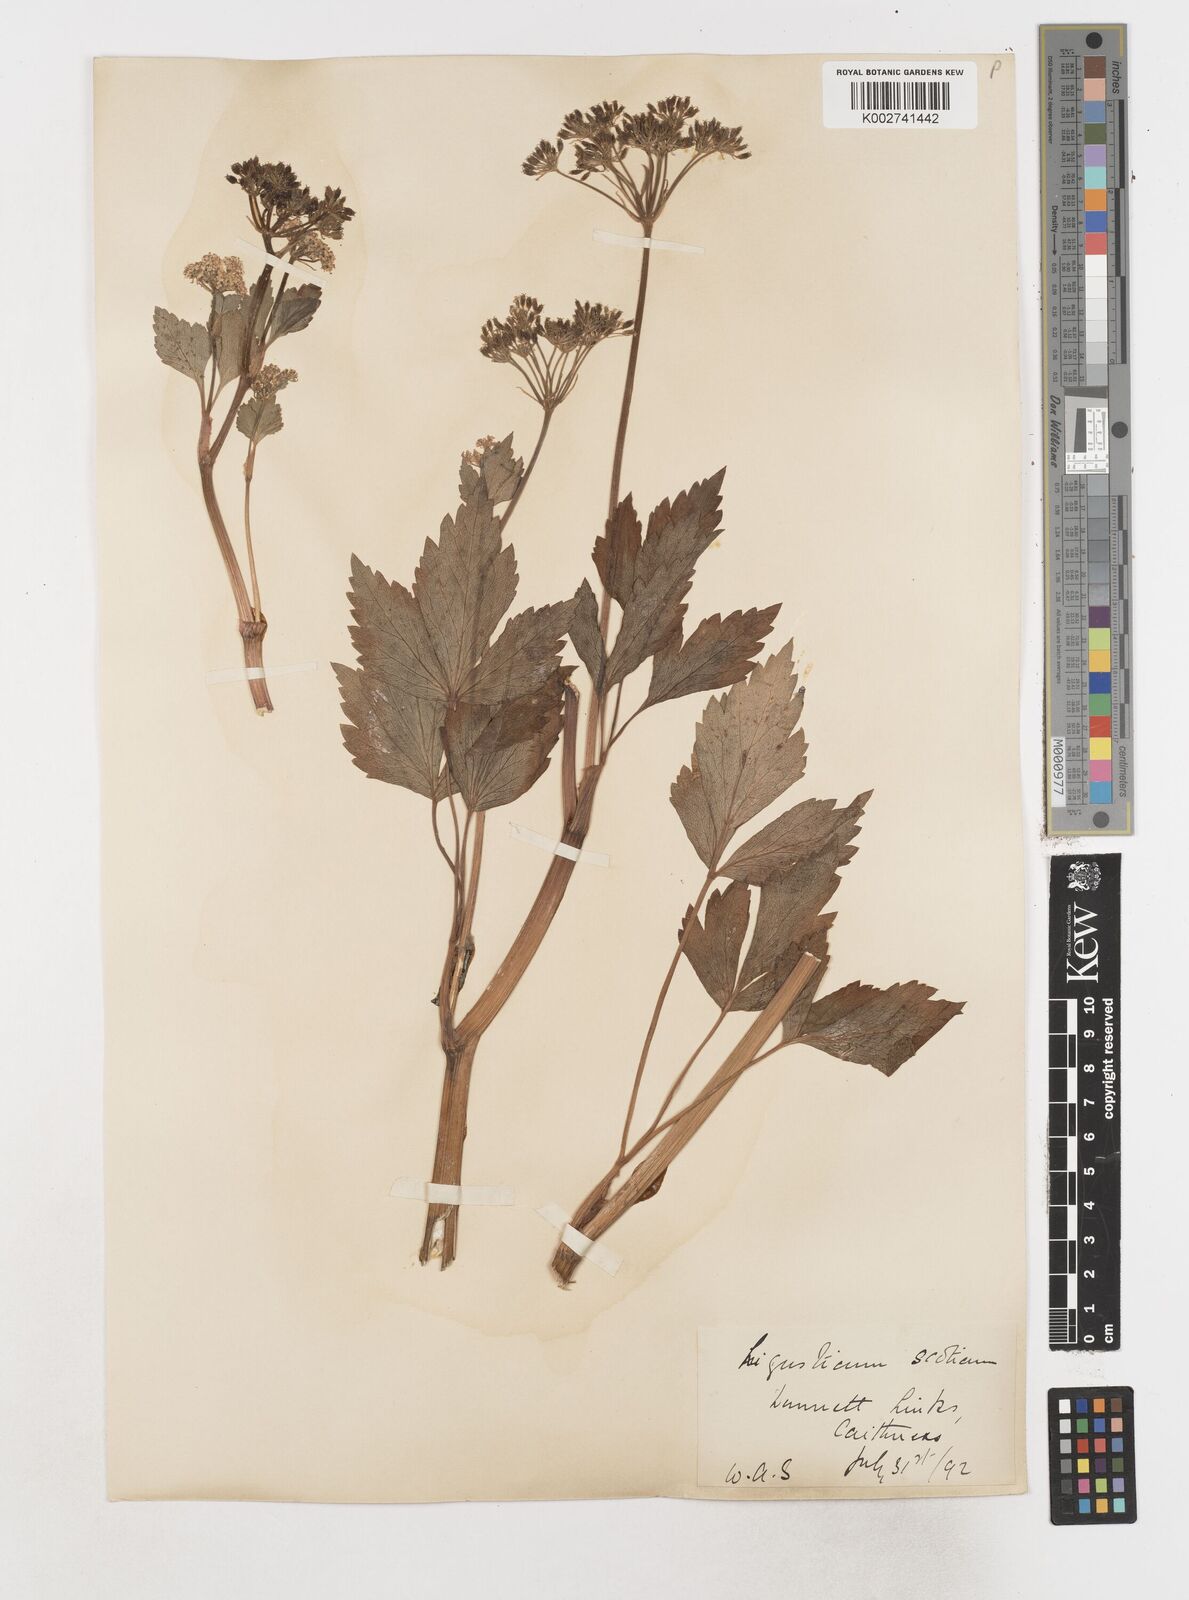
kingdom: Plantae
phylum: Tracheophyta
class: Magnoliopsida
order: Apiales
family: Apiaceae
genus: Ligusticum
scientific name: Ligusticum scothicum
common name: Beach lovage
